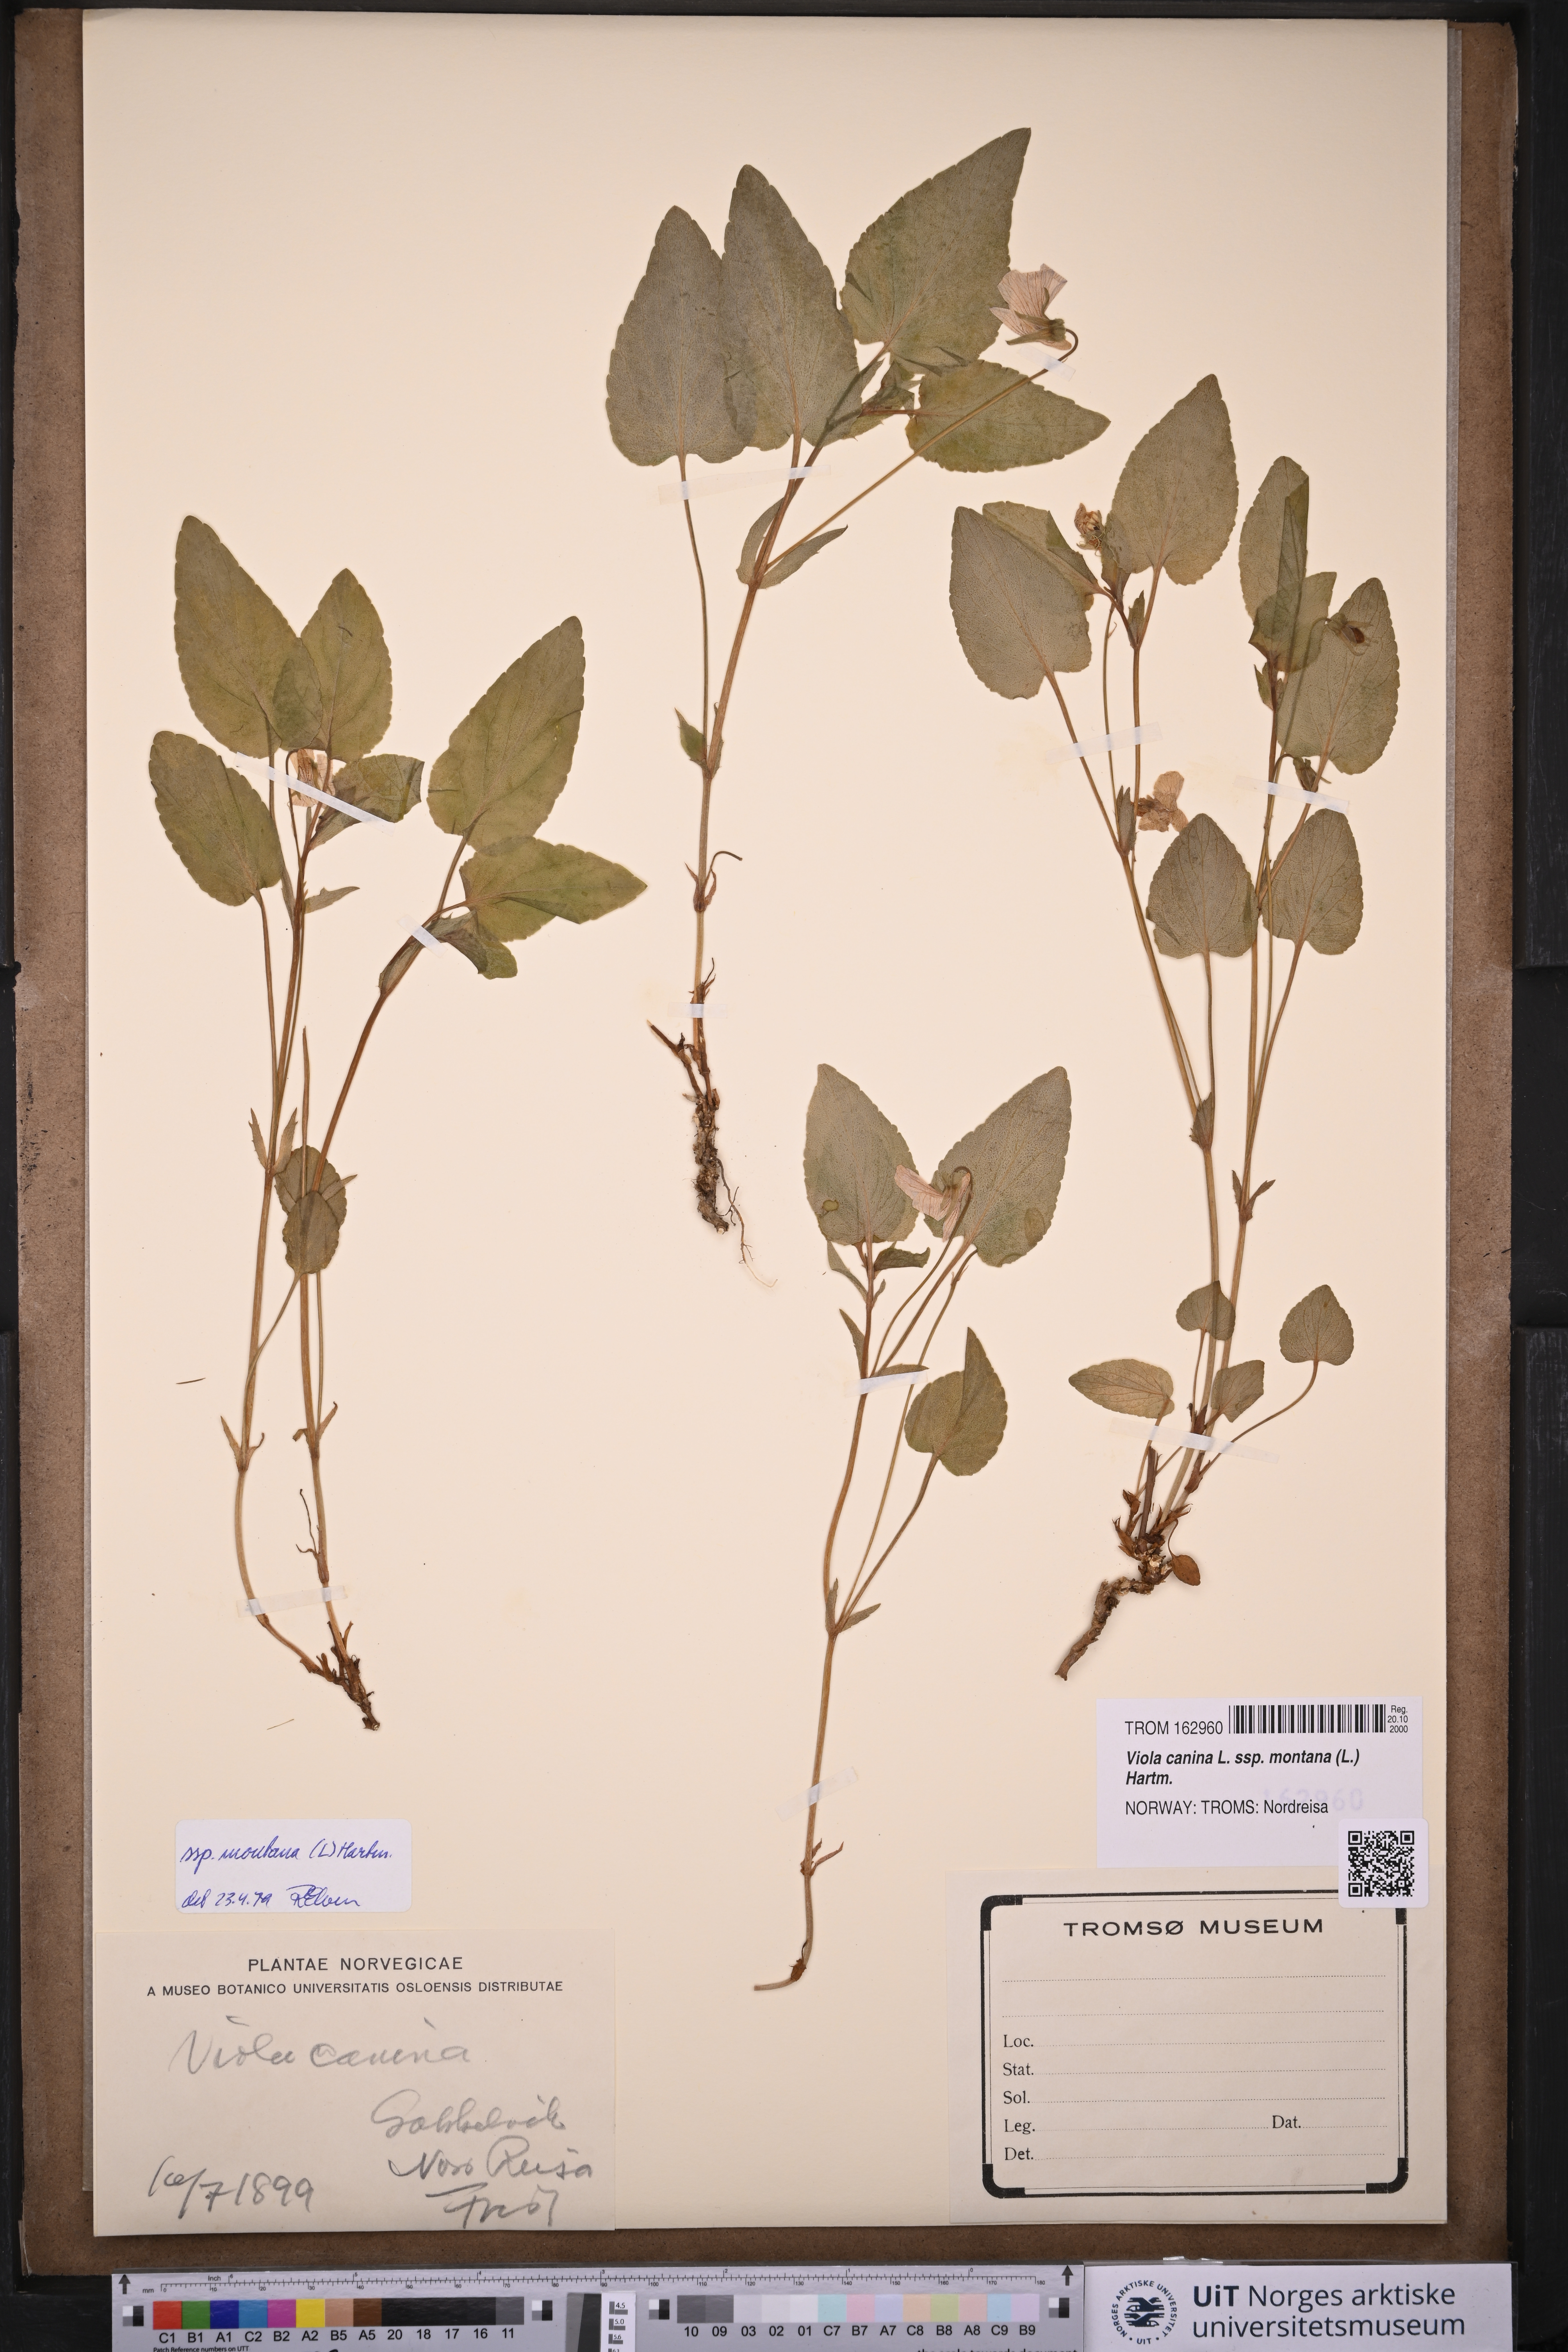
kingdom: Plantae
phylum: Tracheophyta
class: Magnoliopsida
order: Malpighiales
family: Violaceae
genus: Viola
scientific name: Viola ruppii
